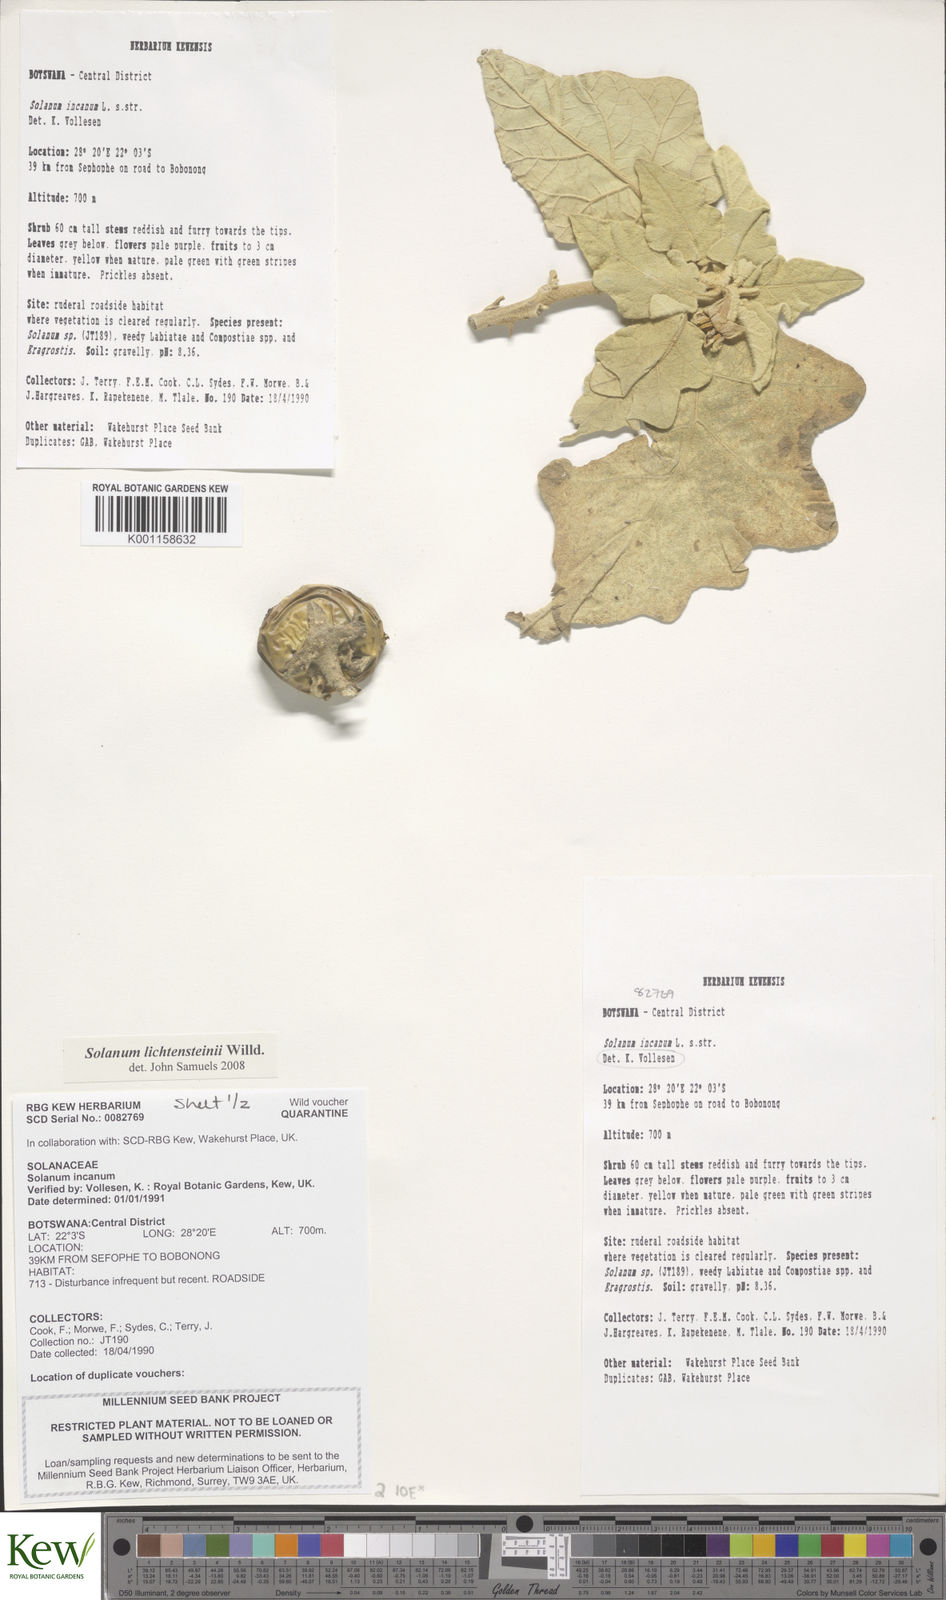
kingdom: Plantae
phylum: Tracheophyta
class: Magnoliopsida
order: Solanales
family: Solanaceae
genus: Solanum
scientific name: Solanum lichtensteinii
